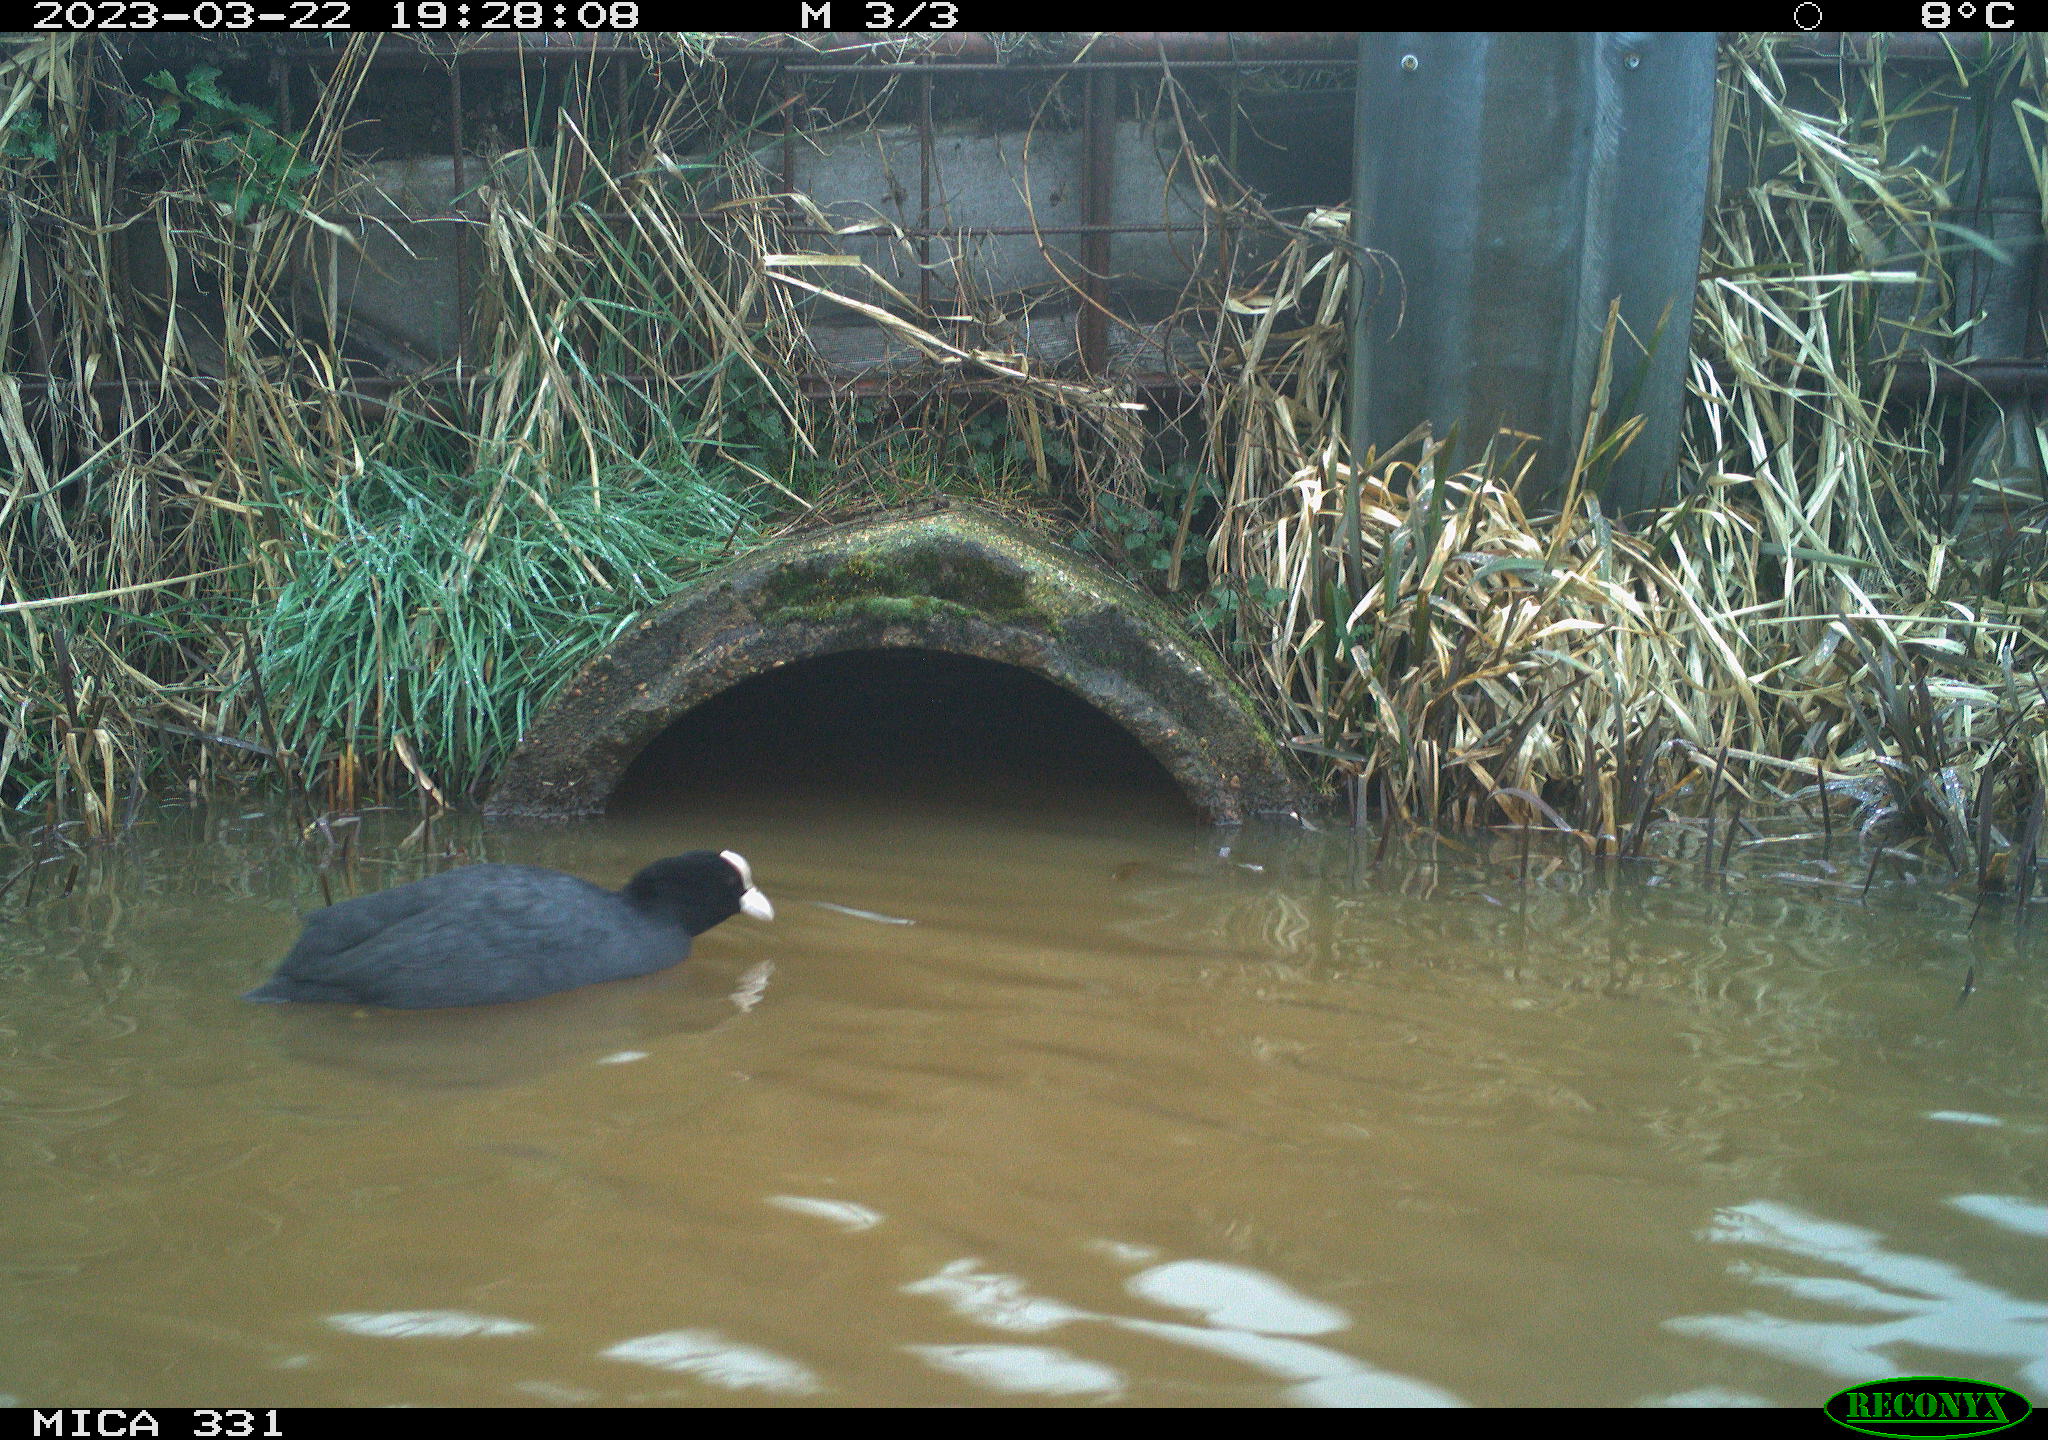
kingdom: Animalia
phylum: Chordata
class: Aves
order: Gruiformes
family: Rallidae
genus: Fulica
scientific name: Fulica atra
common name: Eurasian coot
